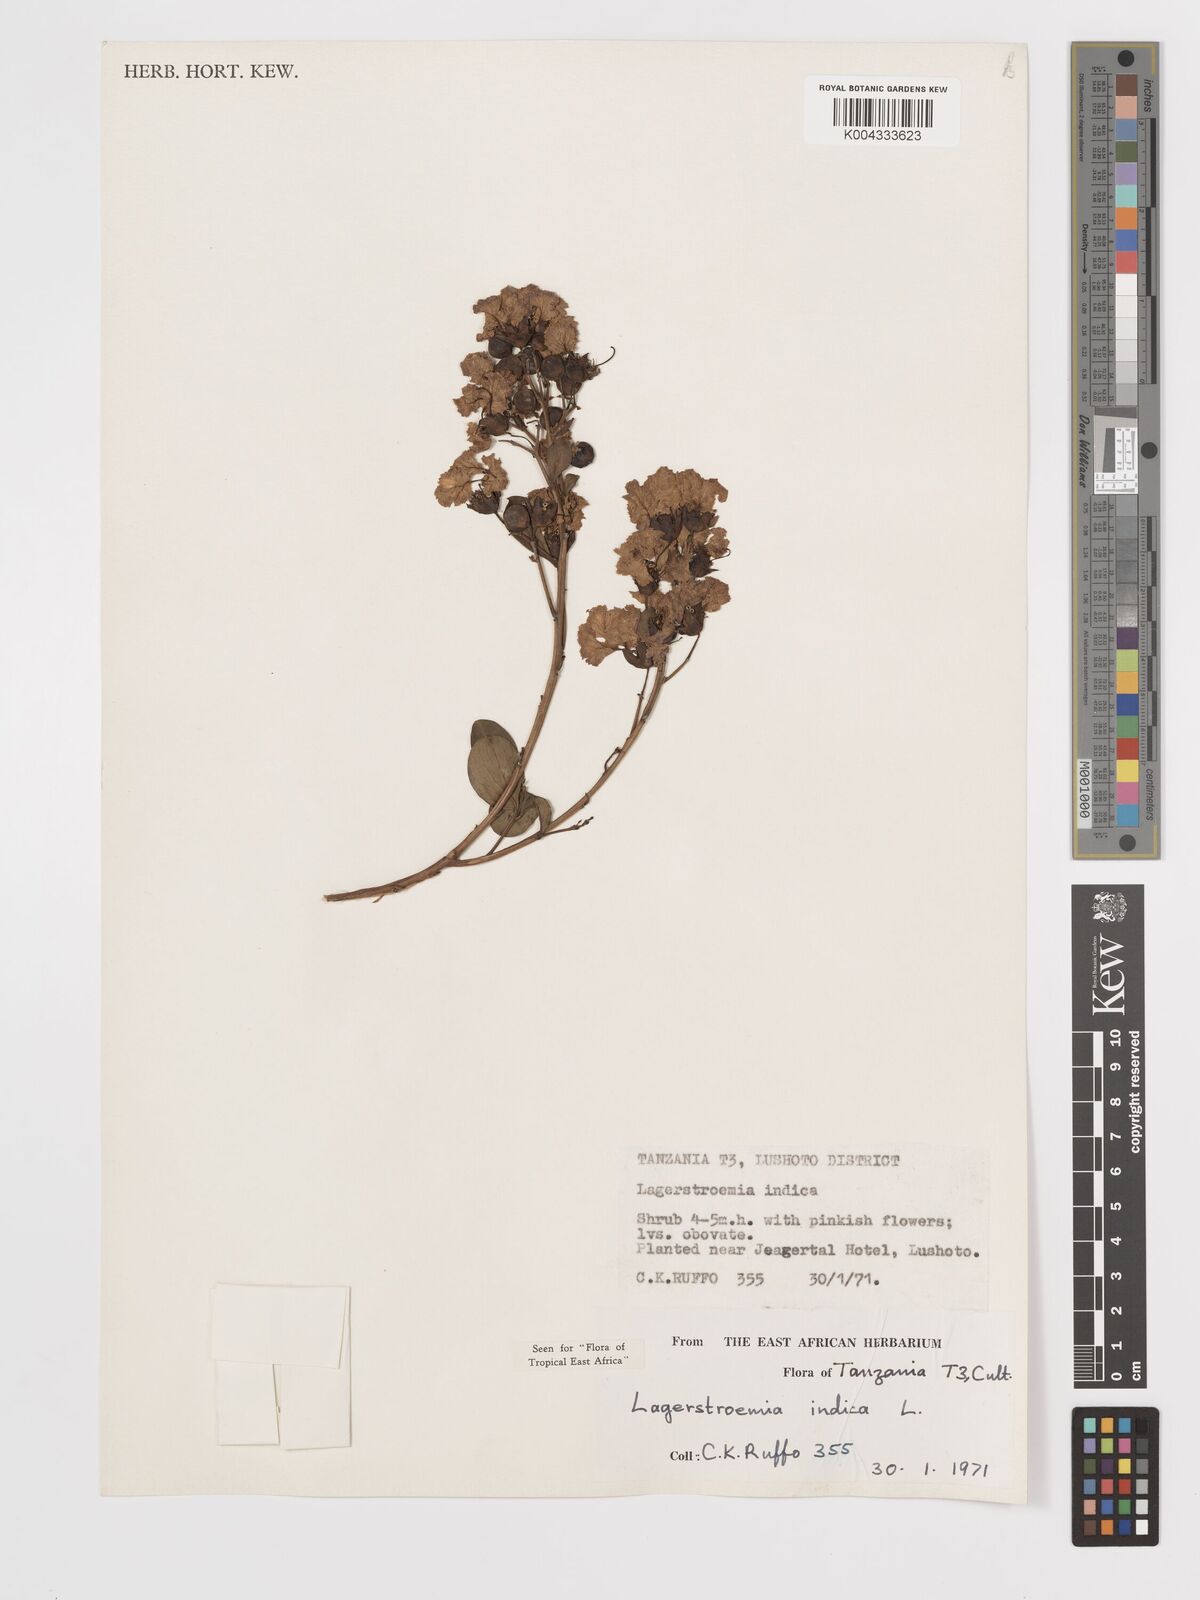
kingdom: Plantae
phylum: Tracheophyta
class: Magnoliopsida
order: Myrtales
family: Lythraceae
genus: Lagerstroemia
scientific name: Lagerstroemia indica
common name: Crape-myrtle
